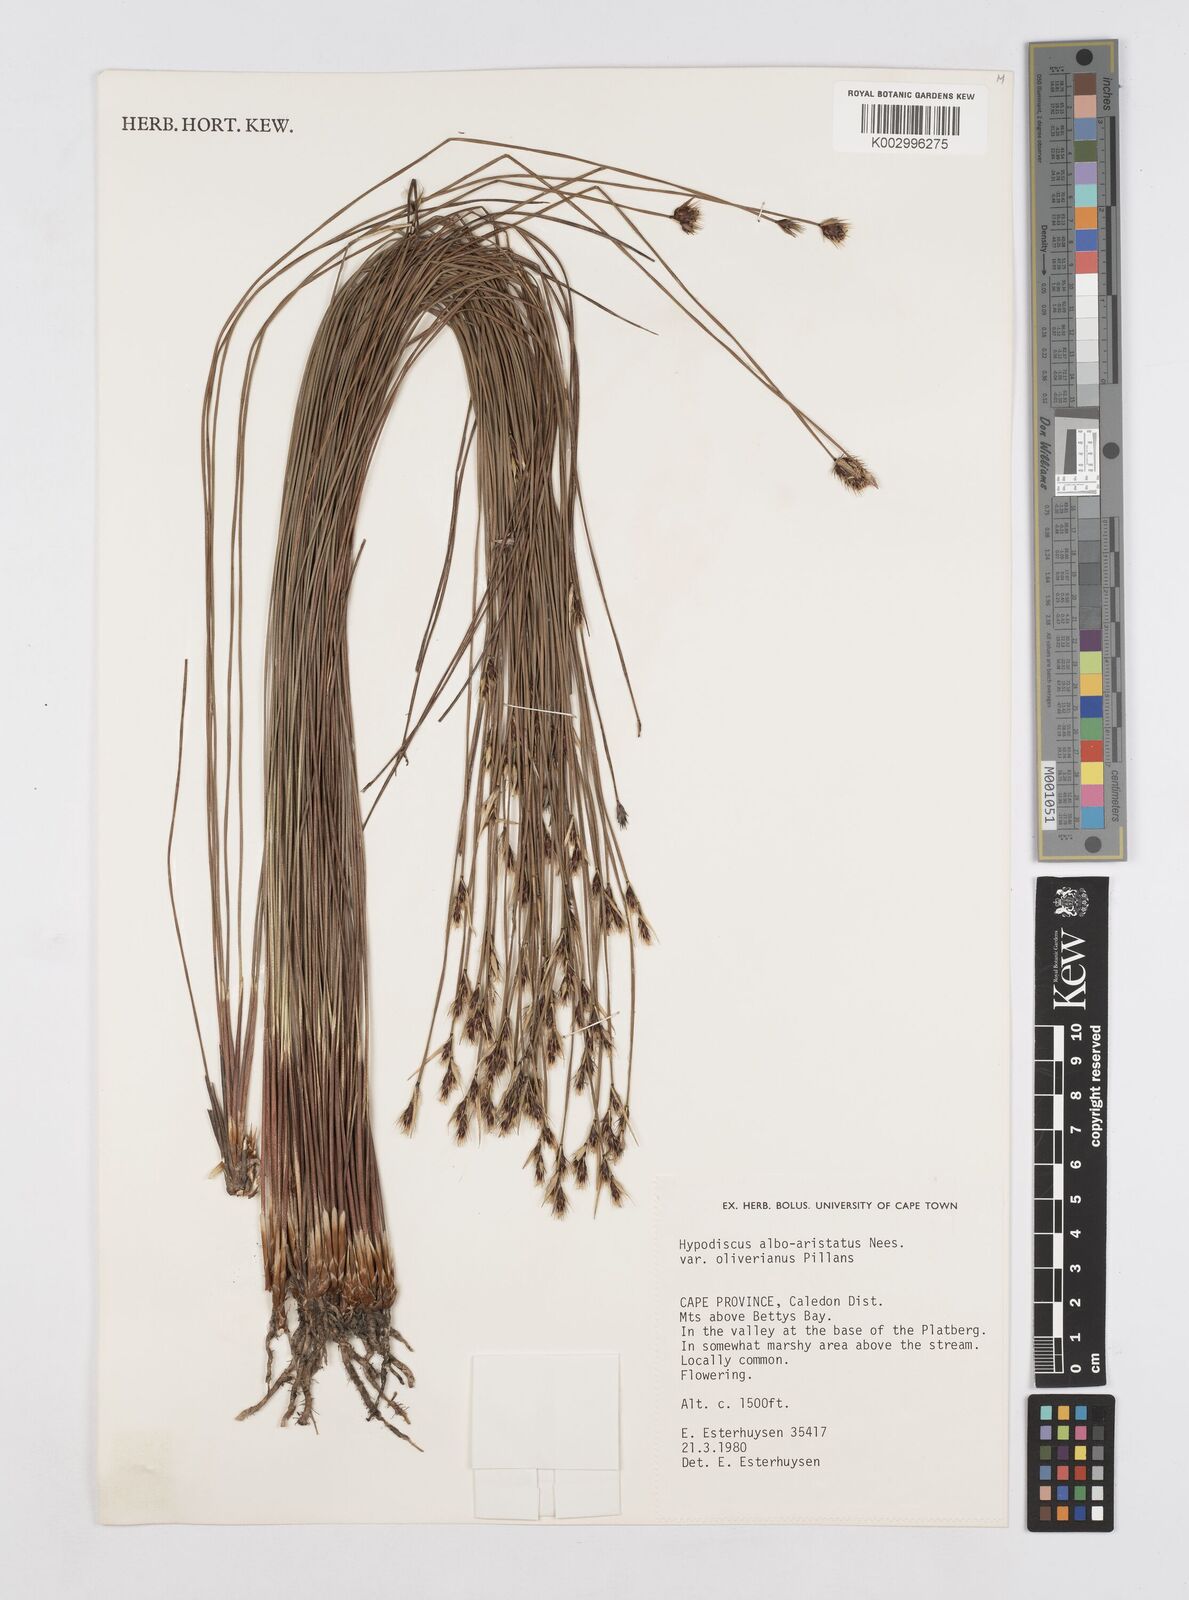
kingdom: Plantae
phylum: Tracheophyta
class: Liliopsida
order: Poales
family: Restionaceae
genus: Hypodiscus
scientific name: Hypodiscus alboaristatus
